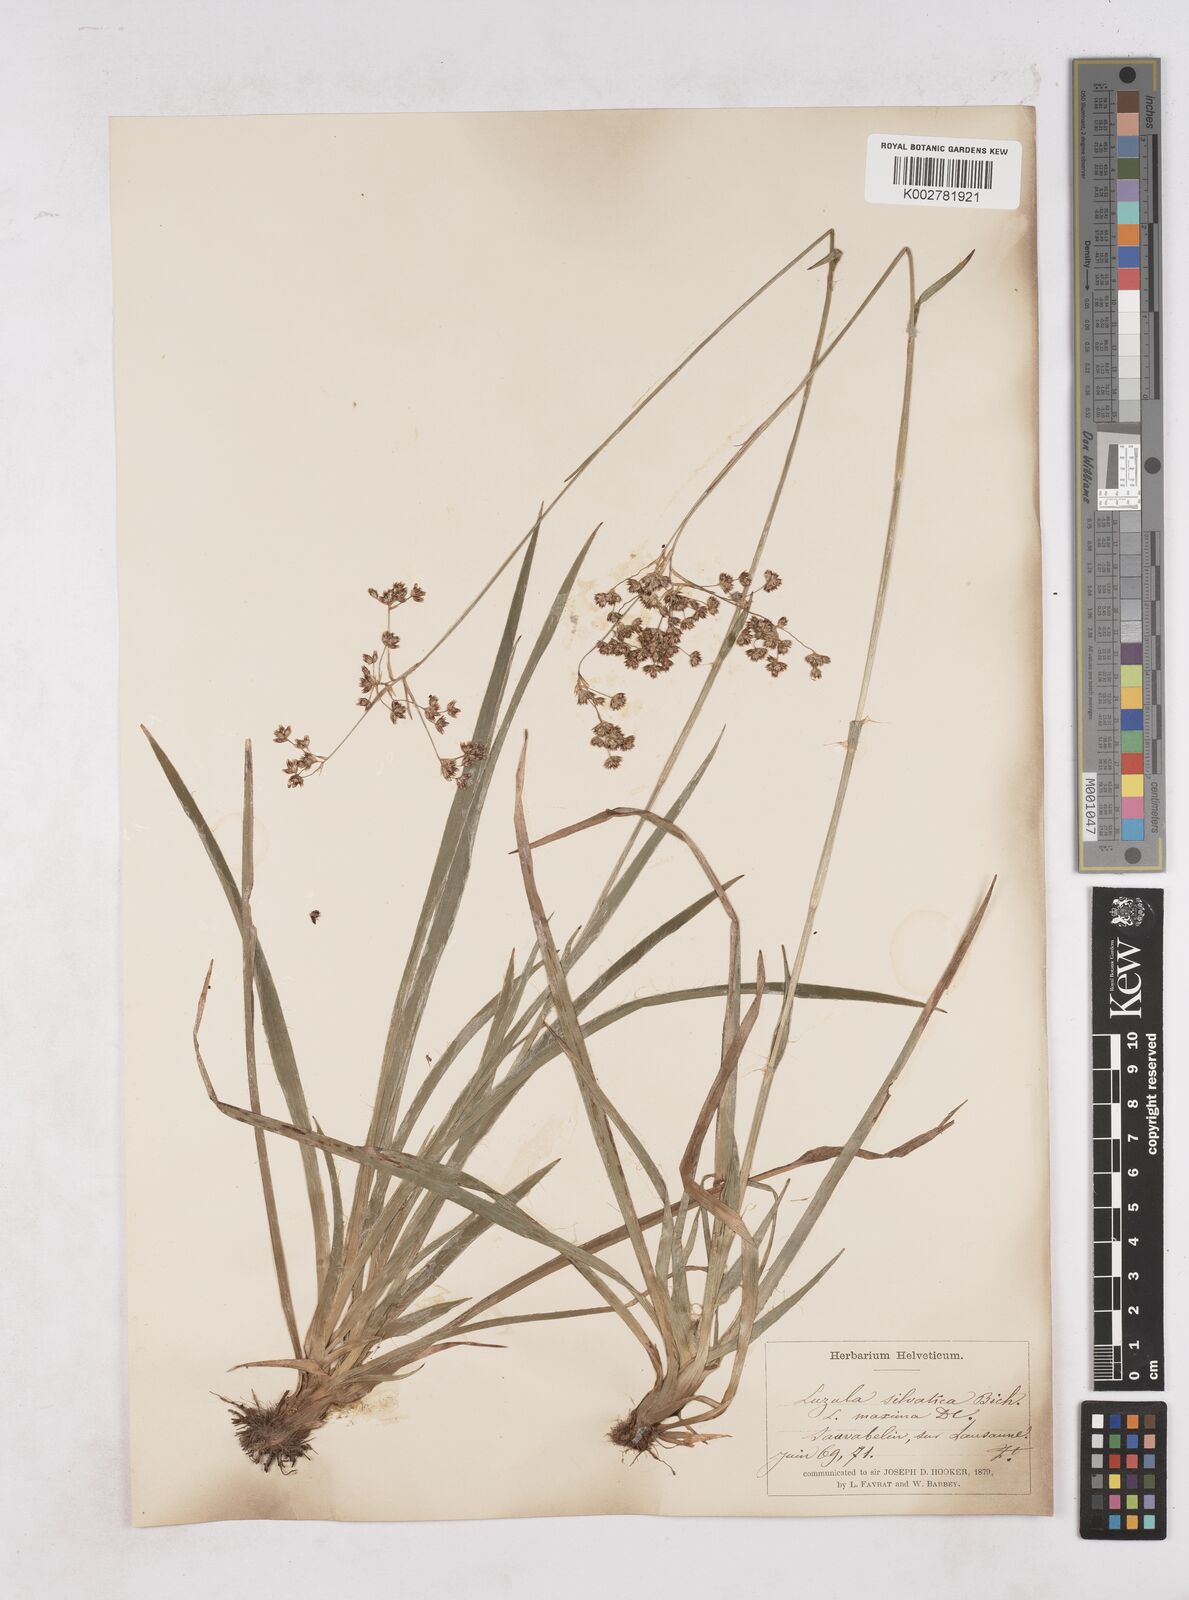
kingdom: Plantae
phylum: Tracheophyta
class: Liliopsida
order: Poales
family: Juncaceae
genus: Luzula
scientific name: Luzula sylvatica
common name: Great wood-rush
